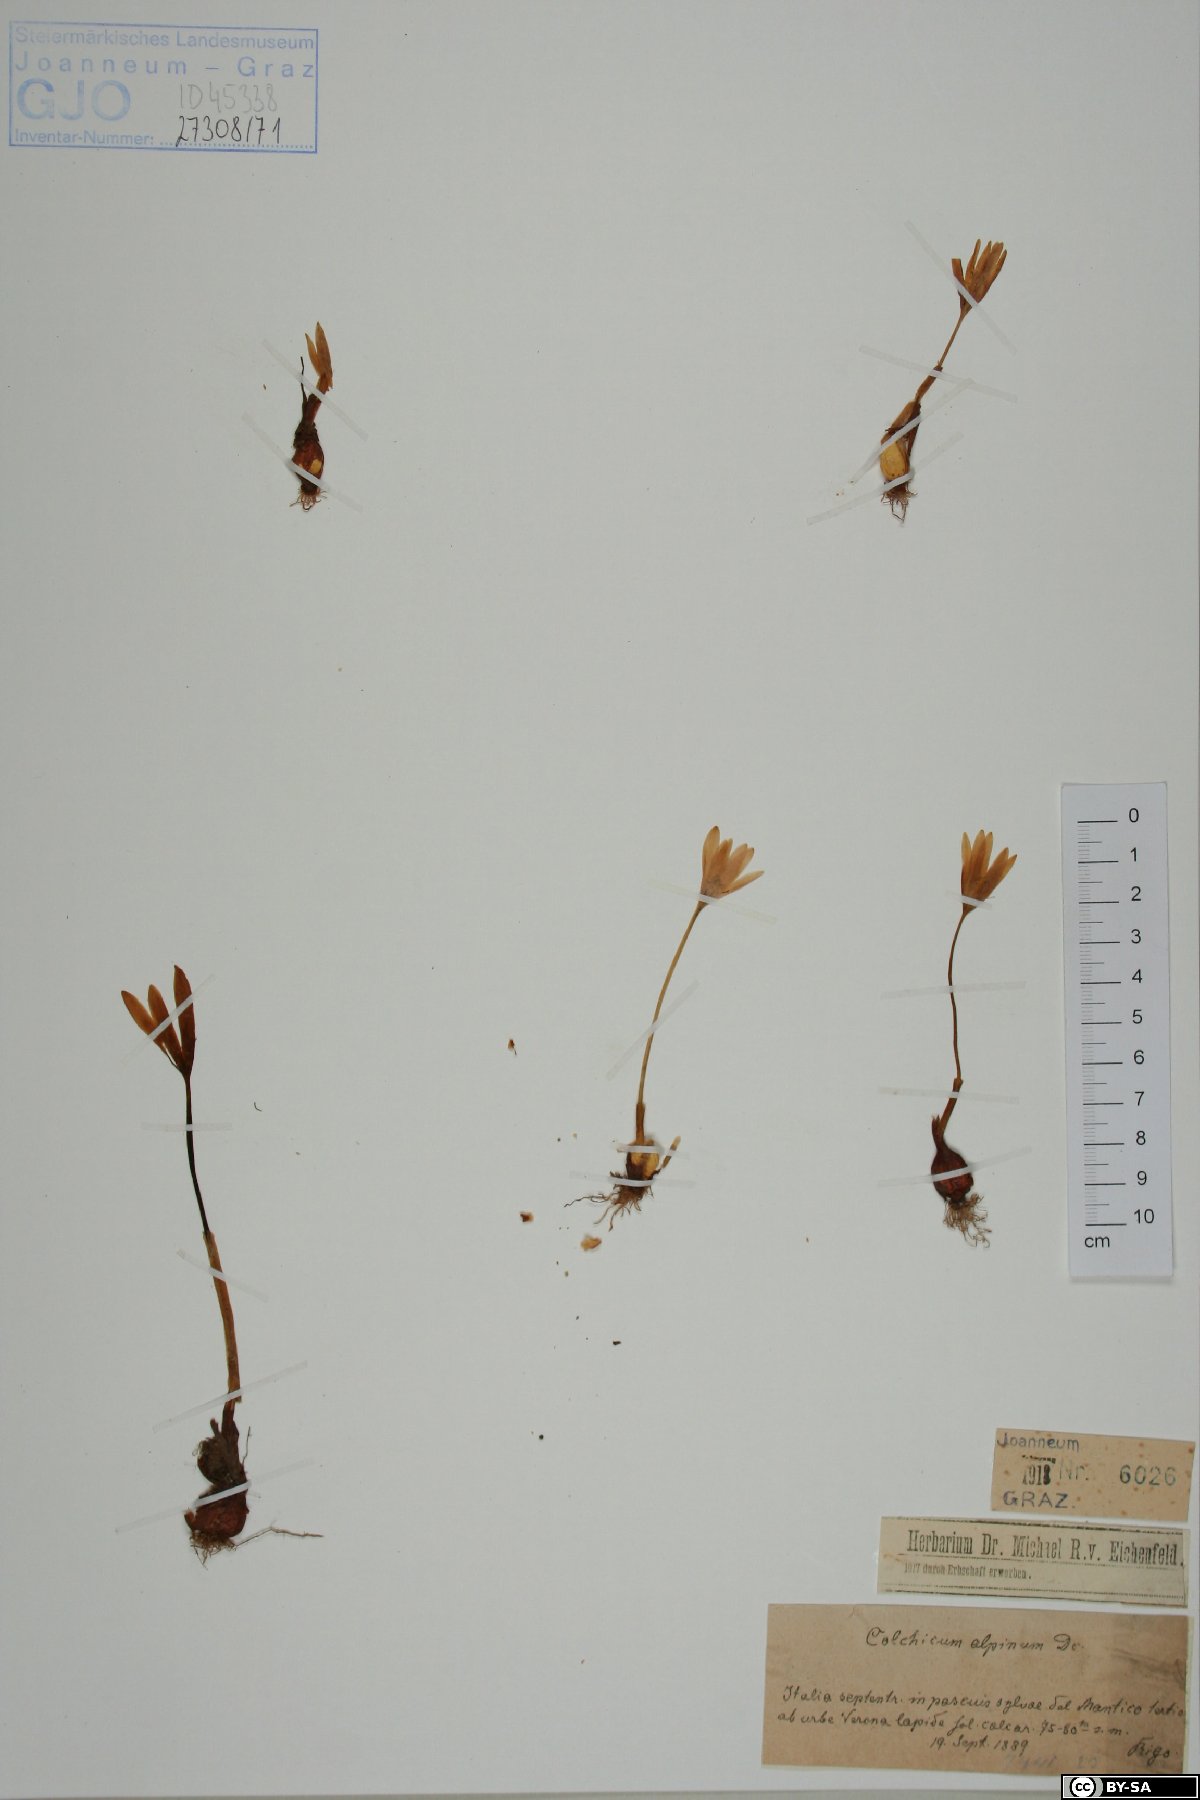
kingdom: Plantae
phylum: Tracheophyta
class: Liliopsida
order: Liliales
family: Colchicaceae
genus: Colchicum
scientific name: Colchicum alpinum
